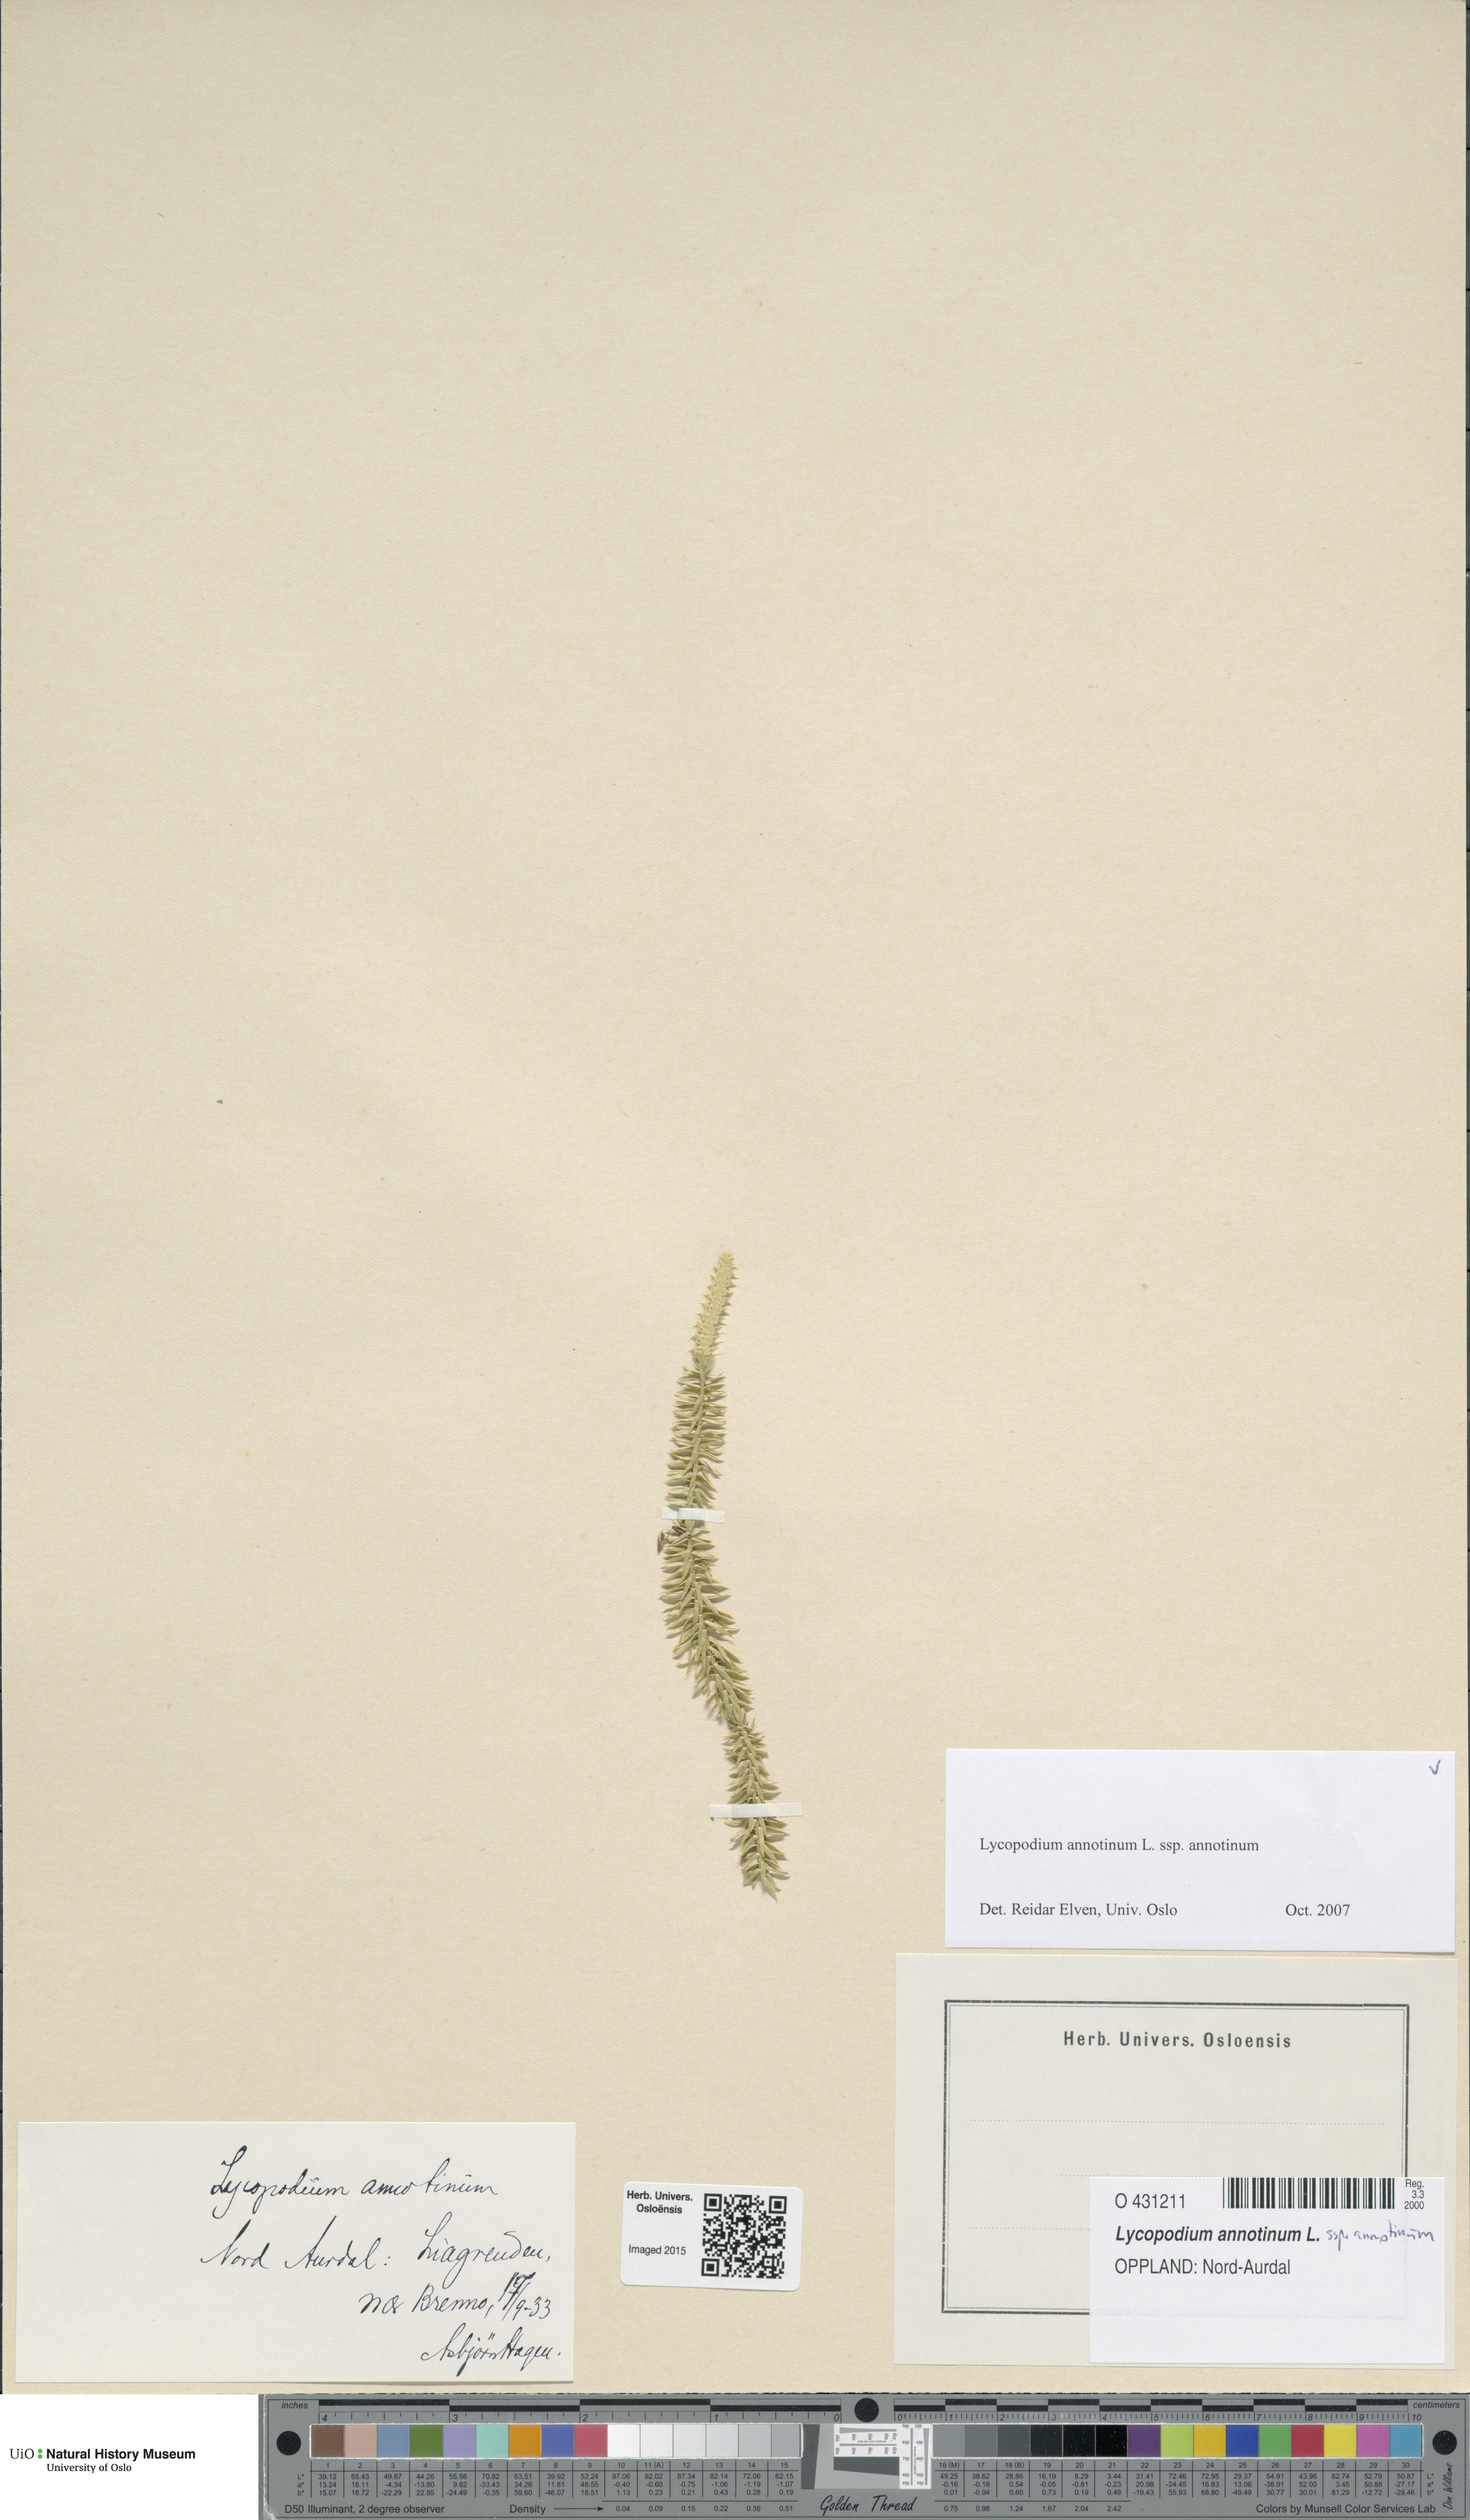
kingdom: Plantae
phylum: Tracheophyta
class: Lycopodiopsida
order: Lycopodiales
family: Lycopodiaceae
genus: Spinulum
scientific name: Spinulum annotinum
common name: Interrupted club-moss
